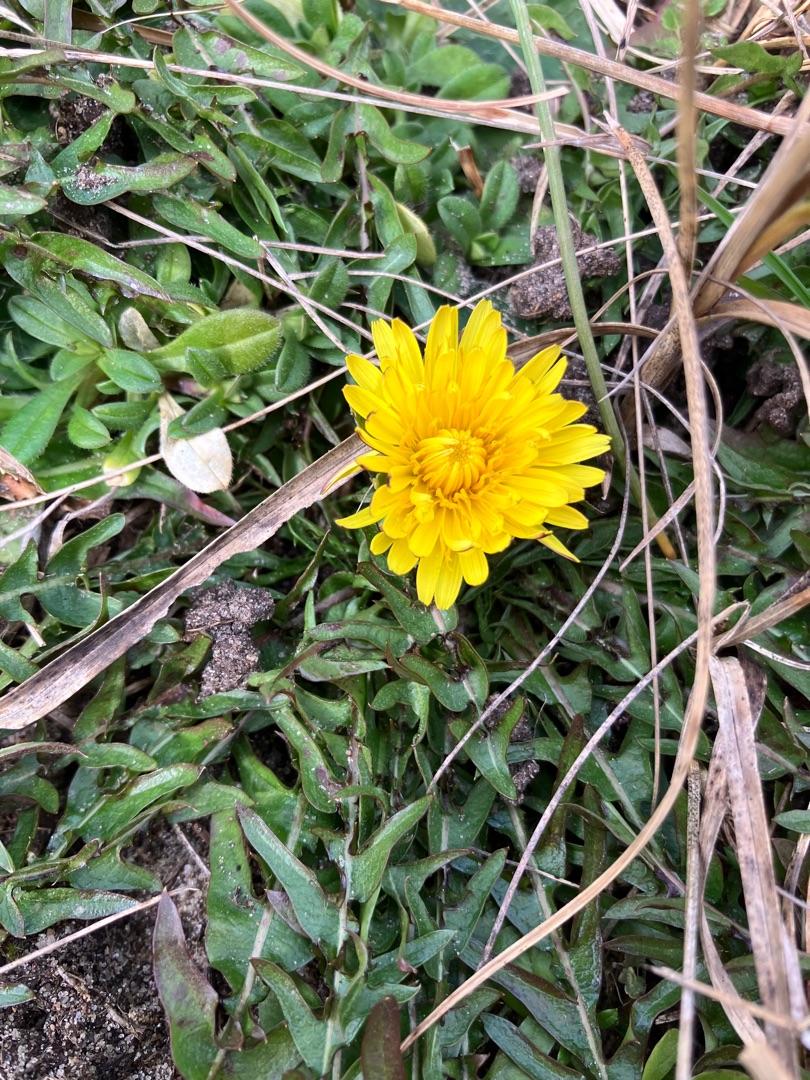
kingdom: Plantae
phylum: Tracheophyta
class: Magnoliopsida
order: Asterales
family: Asteraceae
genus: Taraxacum
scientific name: Taraxacum
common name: Mælkebøtteslægten
